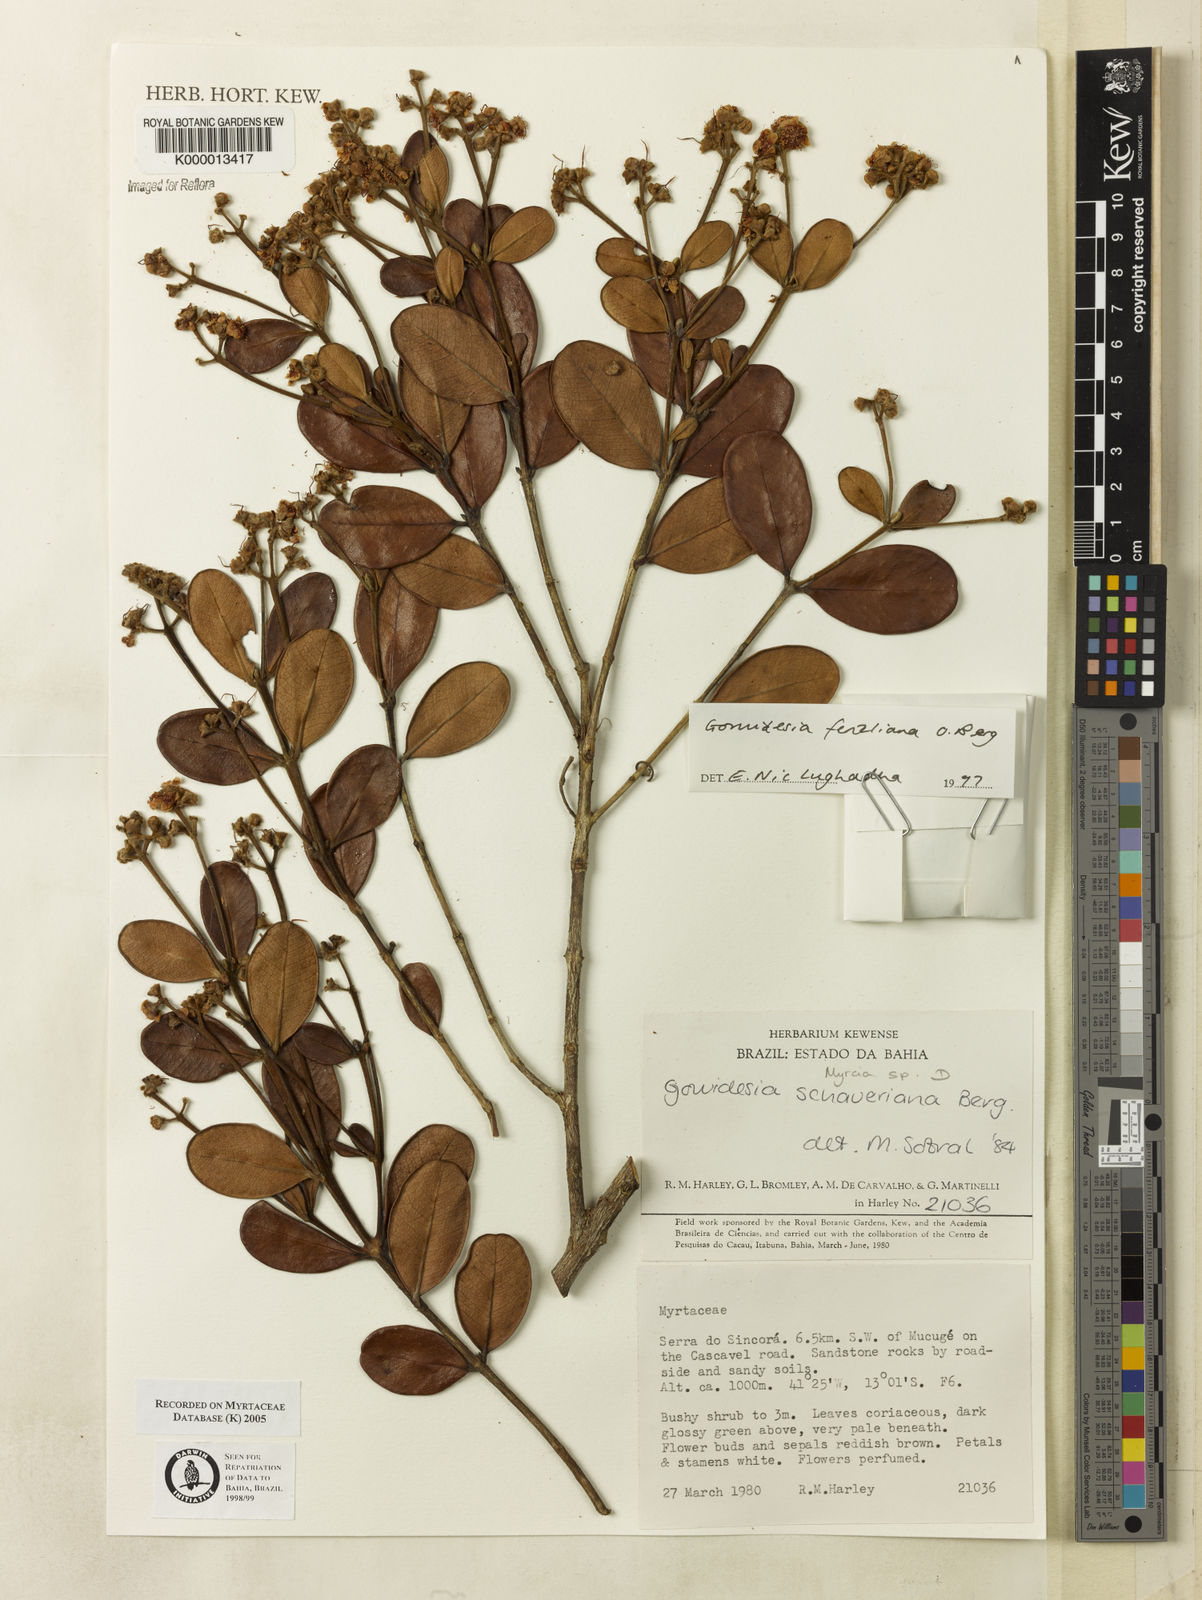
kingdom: Plantae
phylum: Tracheophyta
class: Magnoliopsida
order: Myrtales
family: Myrtaceae
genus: Myrcia
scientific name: Myrcia
